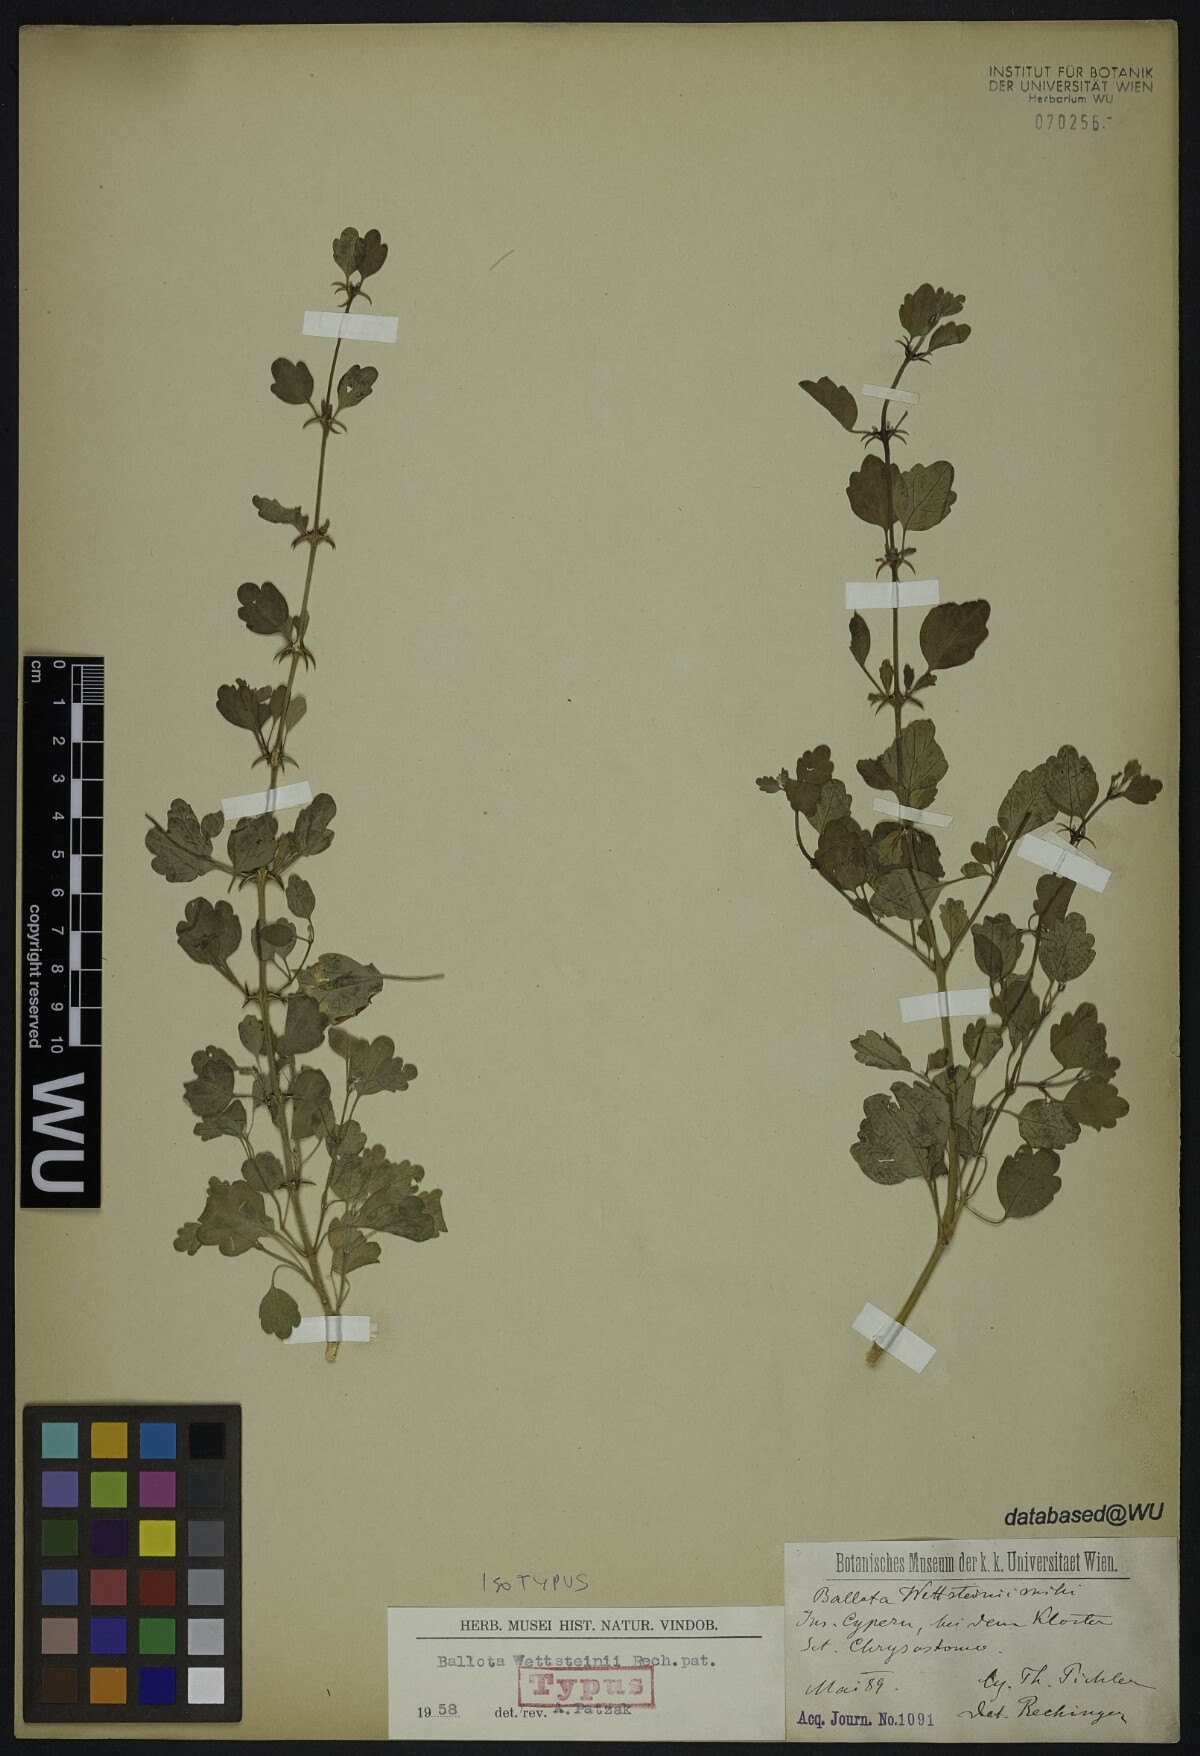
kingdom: Plantae
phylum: Tracheophyta
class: Magnoliopsida
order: Lamiales
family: Lamiaceae
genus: Acanthoprasium
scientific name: Acanthoprasium integrifolium
